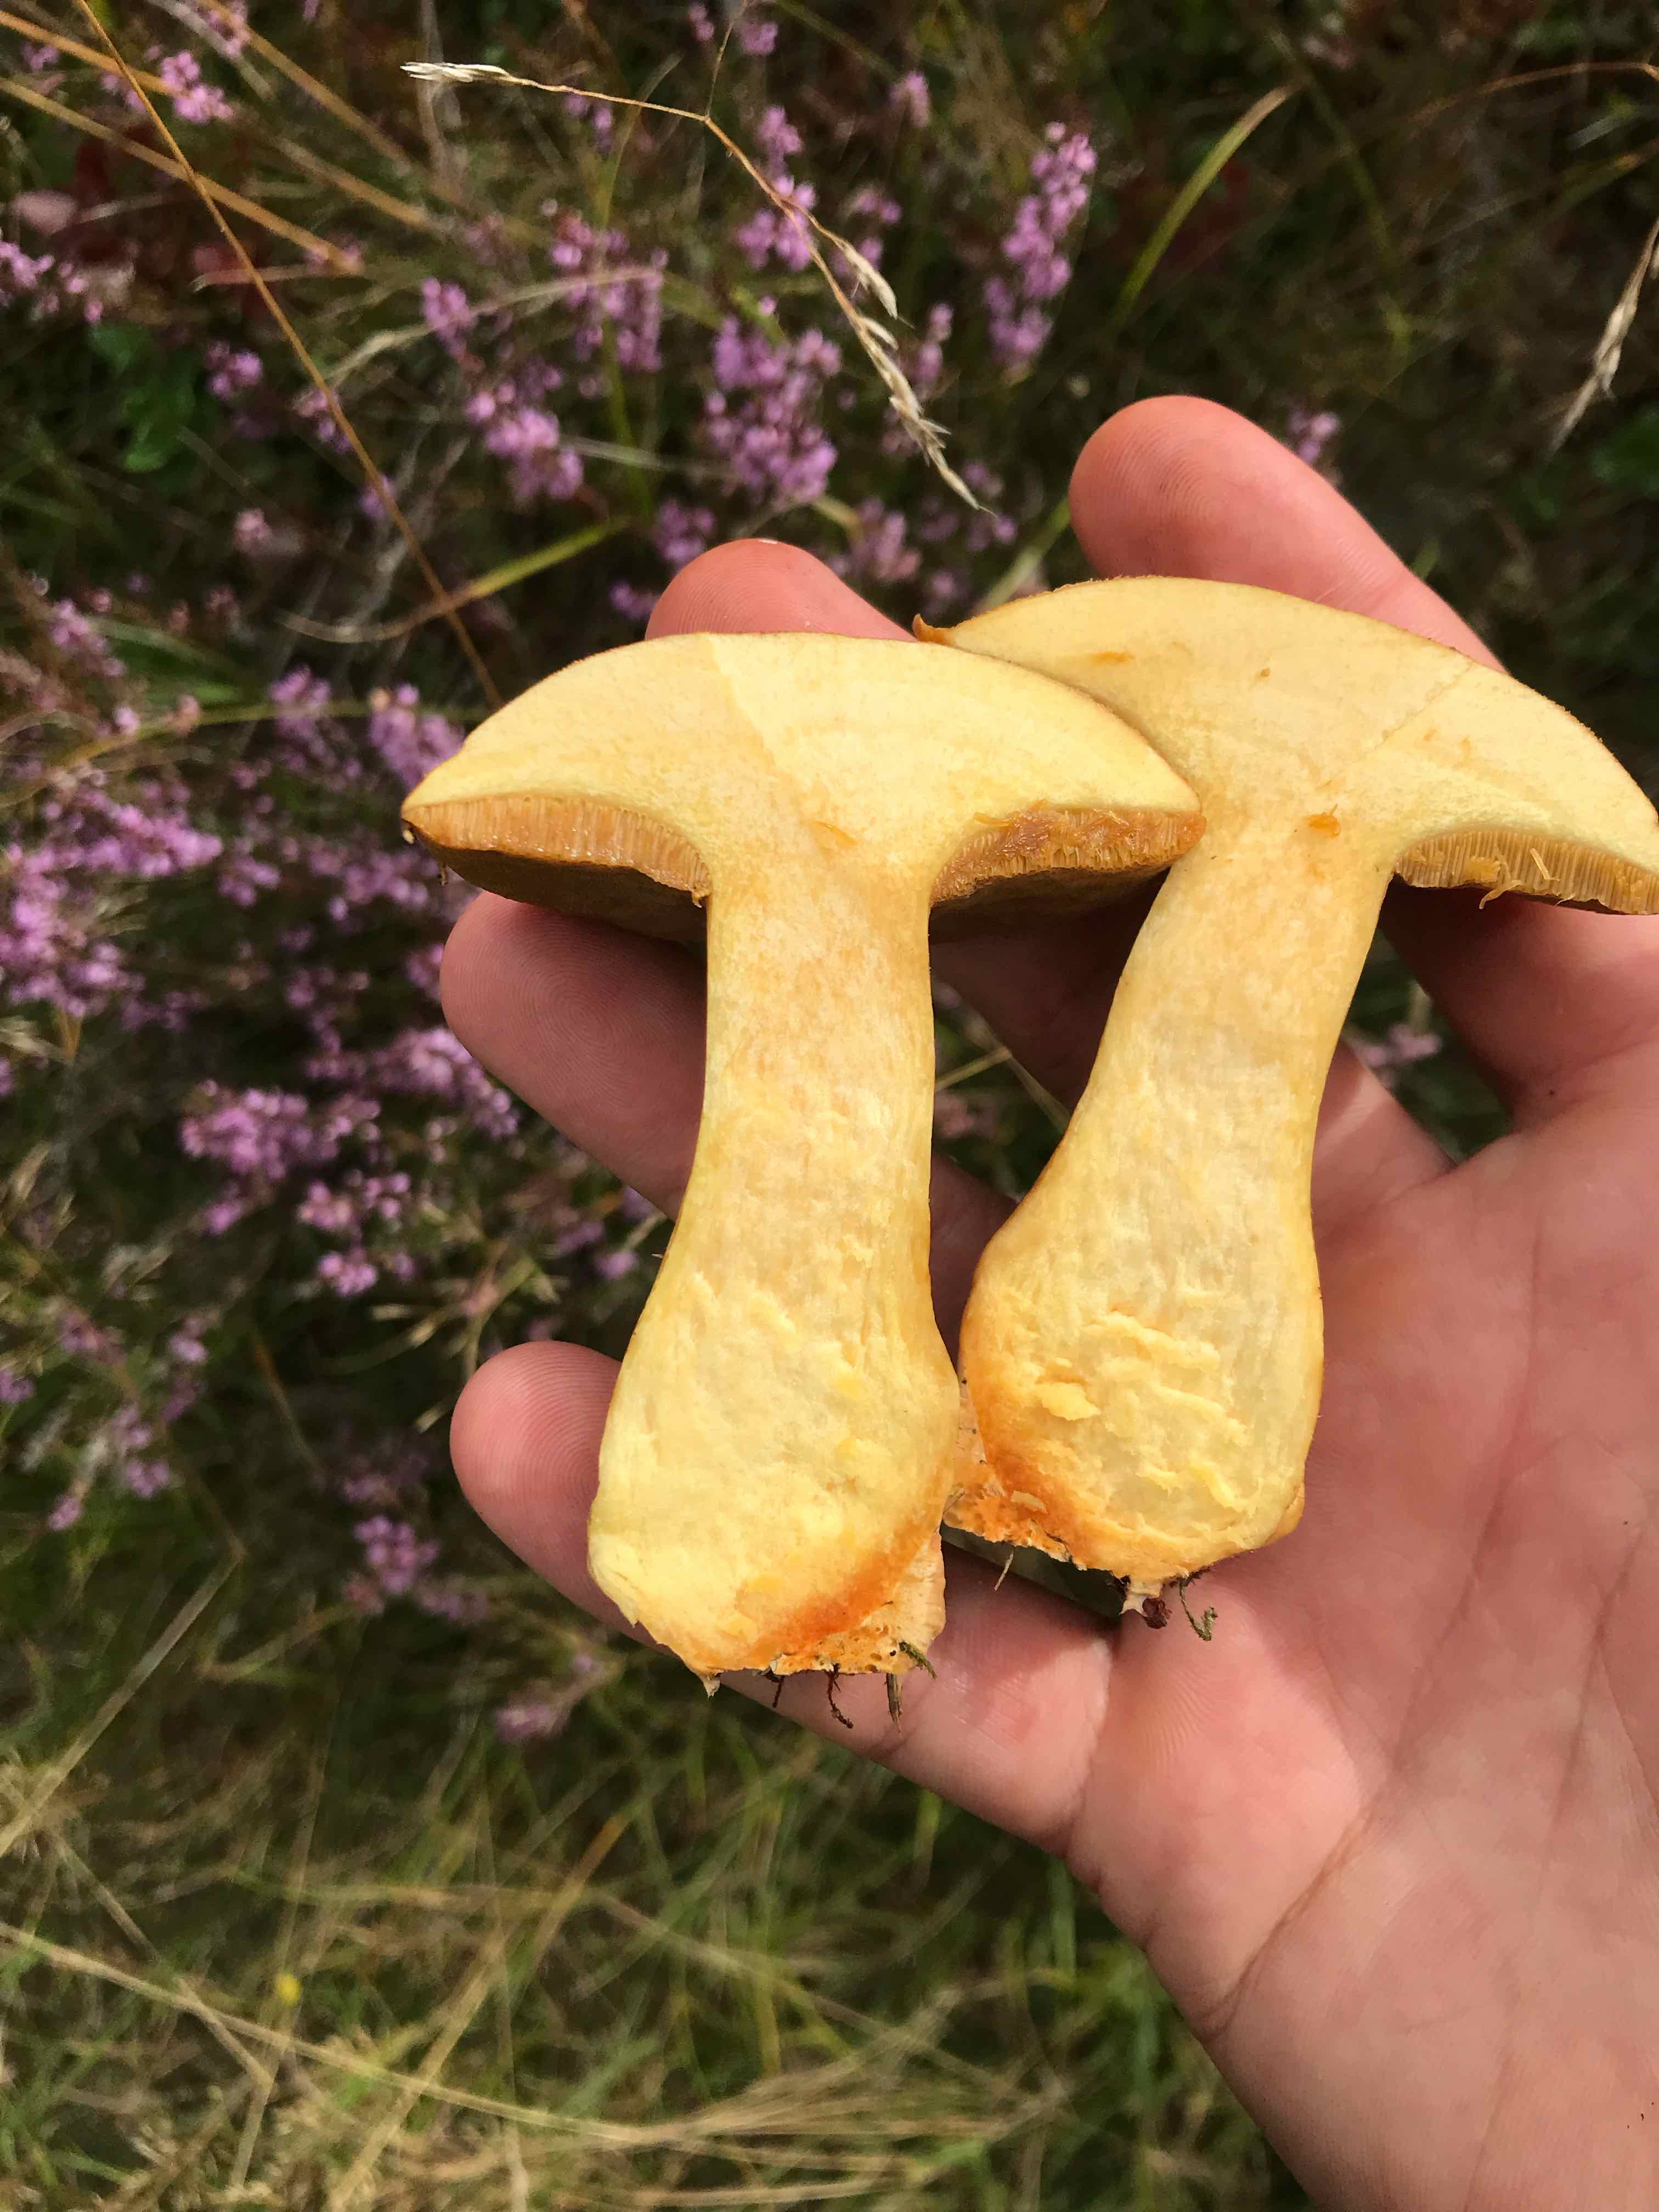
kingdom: Fungi
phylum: Basidiomycota
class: Agaricomycetes
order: Boletales
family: Suillaceae
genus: Suillus
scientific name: Suillus variegatus
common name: broget slimrørhat
